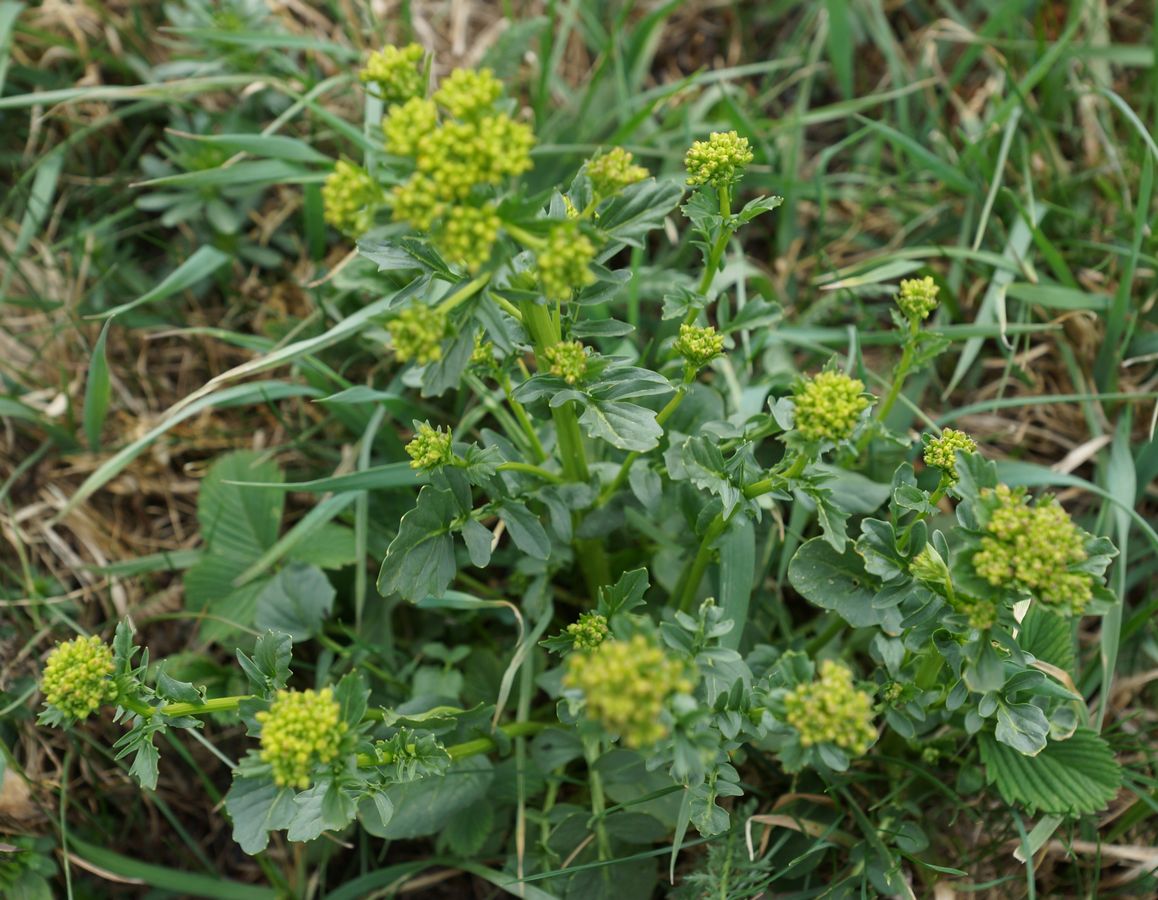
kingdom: Plantae
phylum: Tracheophyta
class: Magnoliopsida
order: Brassicales
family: Brassicaceae
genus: Barbarea
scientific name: Barbarea vulgaris
